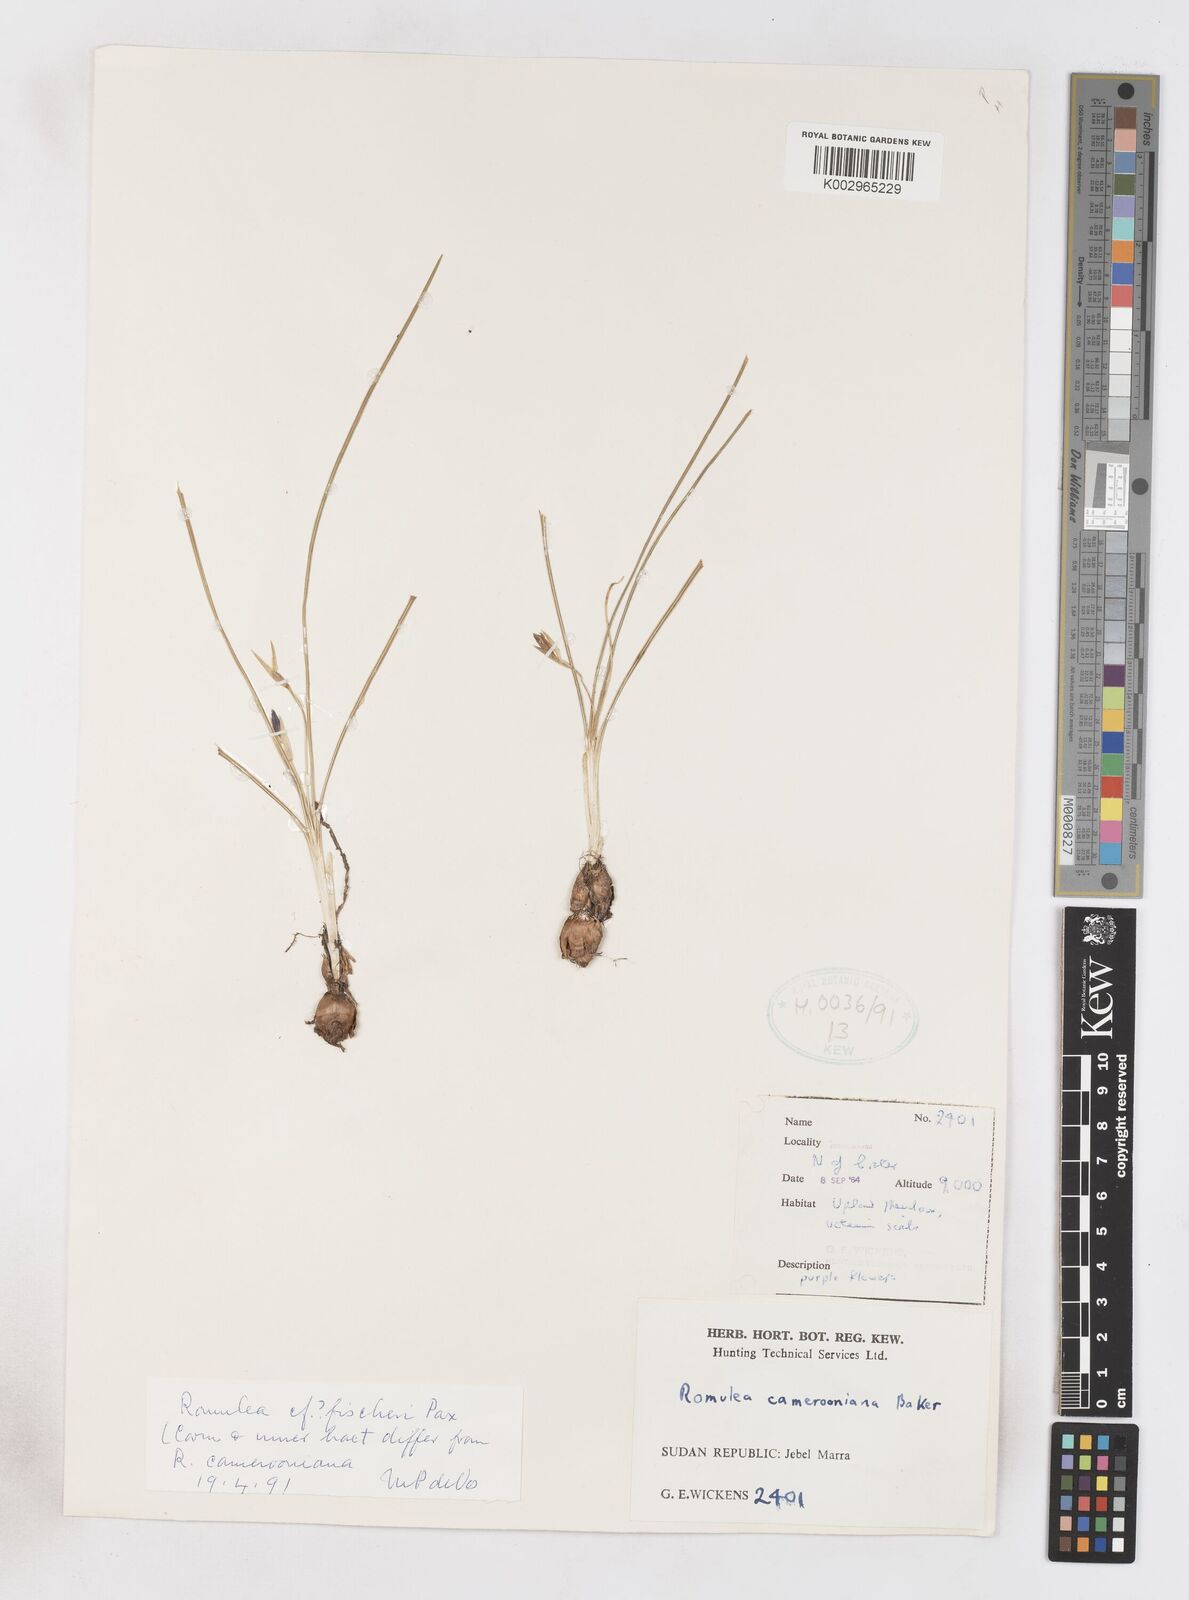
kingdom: Plantae
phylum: Tracheophyta
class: Liliopsida
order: Asparagales
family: Iridaceae
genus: Romulea
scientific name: Romulea fischeri
